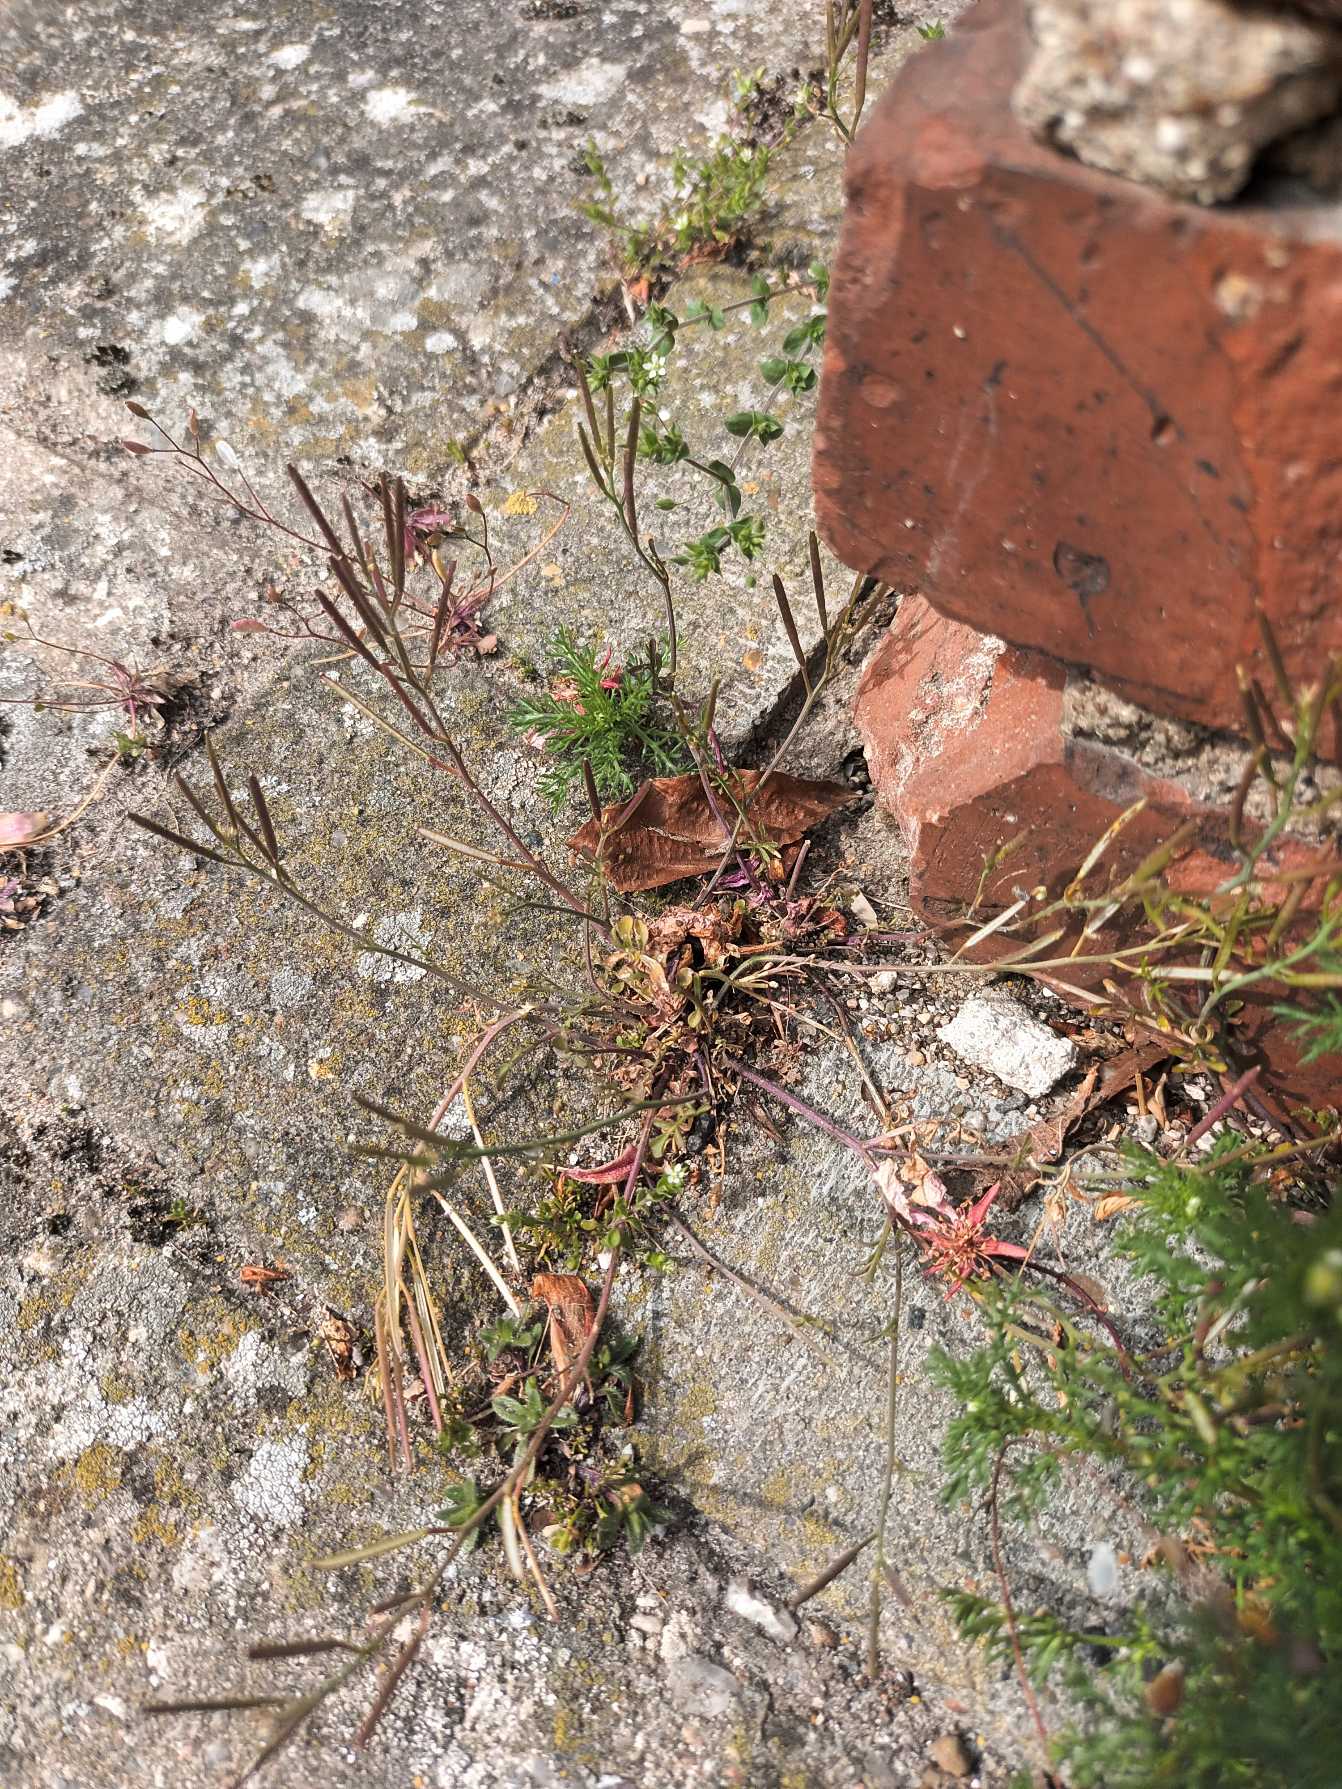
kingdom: Plantae
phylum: Tracheophyta
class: Magnoliopsida
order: Brassicales
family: Brassicaceae
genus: Cardamine
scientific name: Cardamine hirsuta
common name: Roset-springklap
